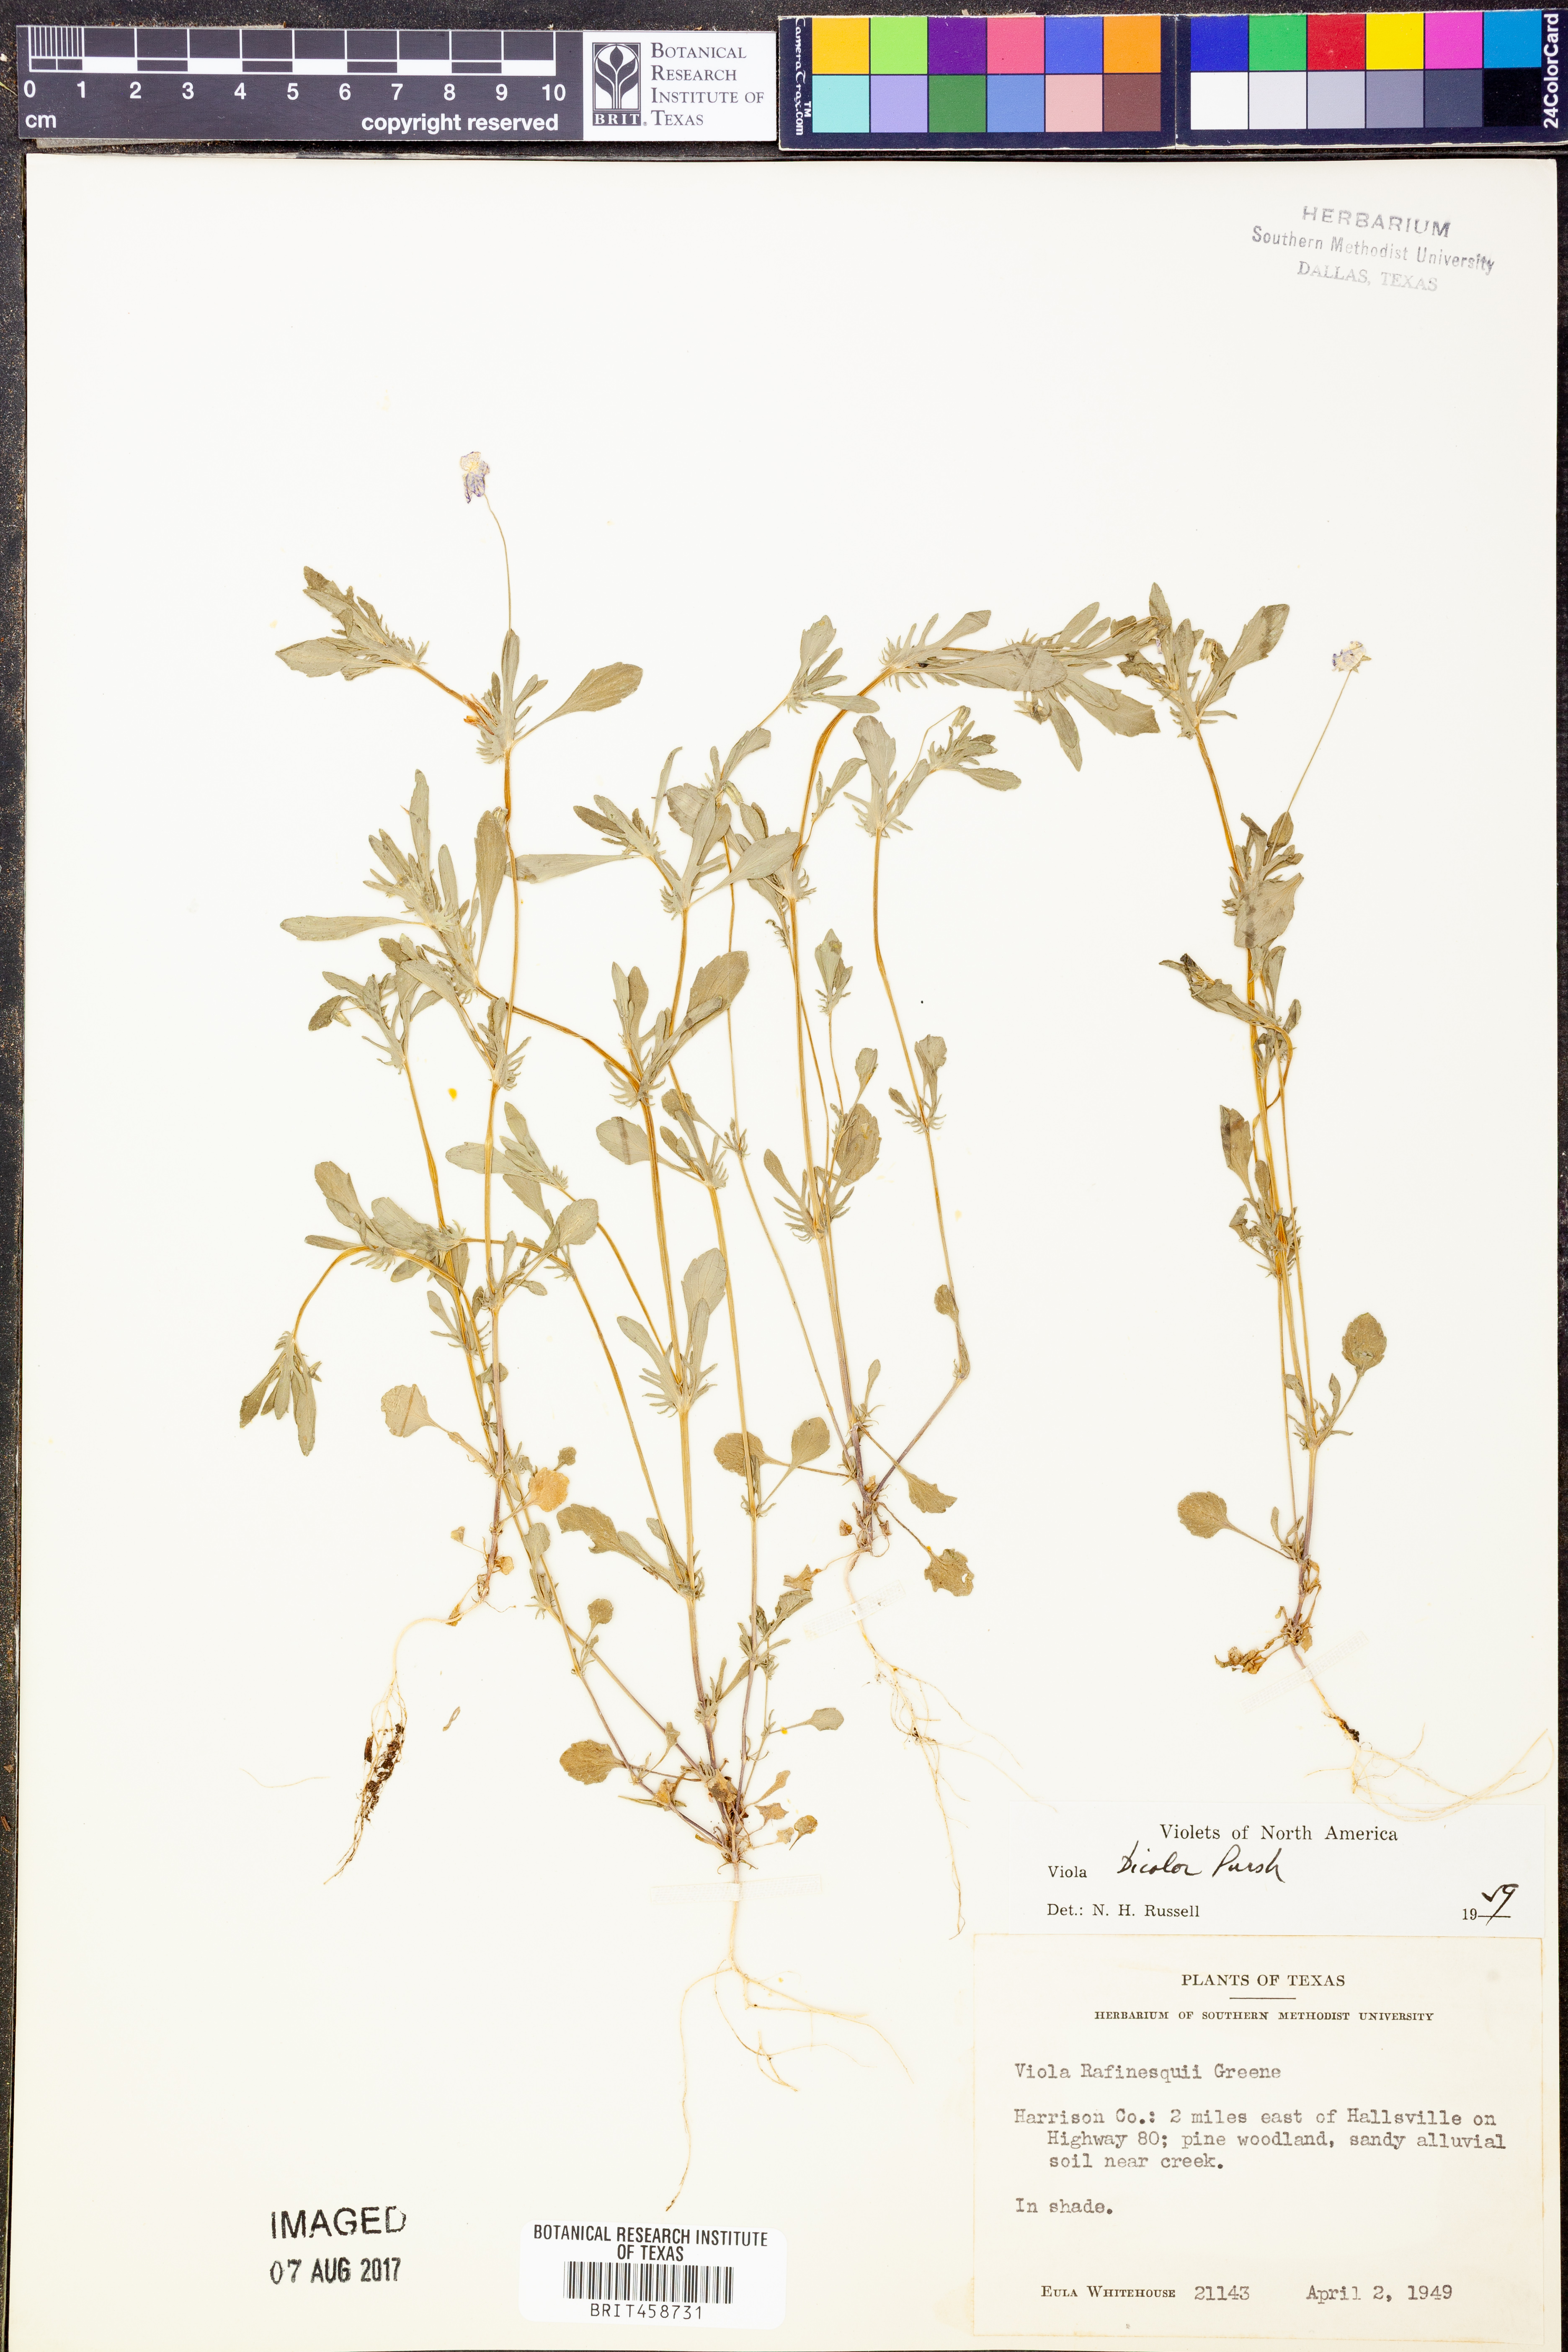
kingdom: Plantae
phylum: Tracheophyta
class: Magnoliopsida
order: Malpighiales
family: Violaceae
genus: Viola
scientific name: Viola rafinesquei
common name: American field pansy
